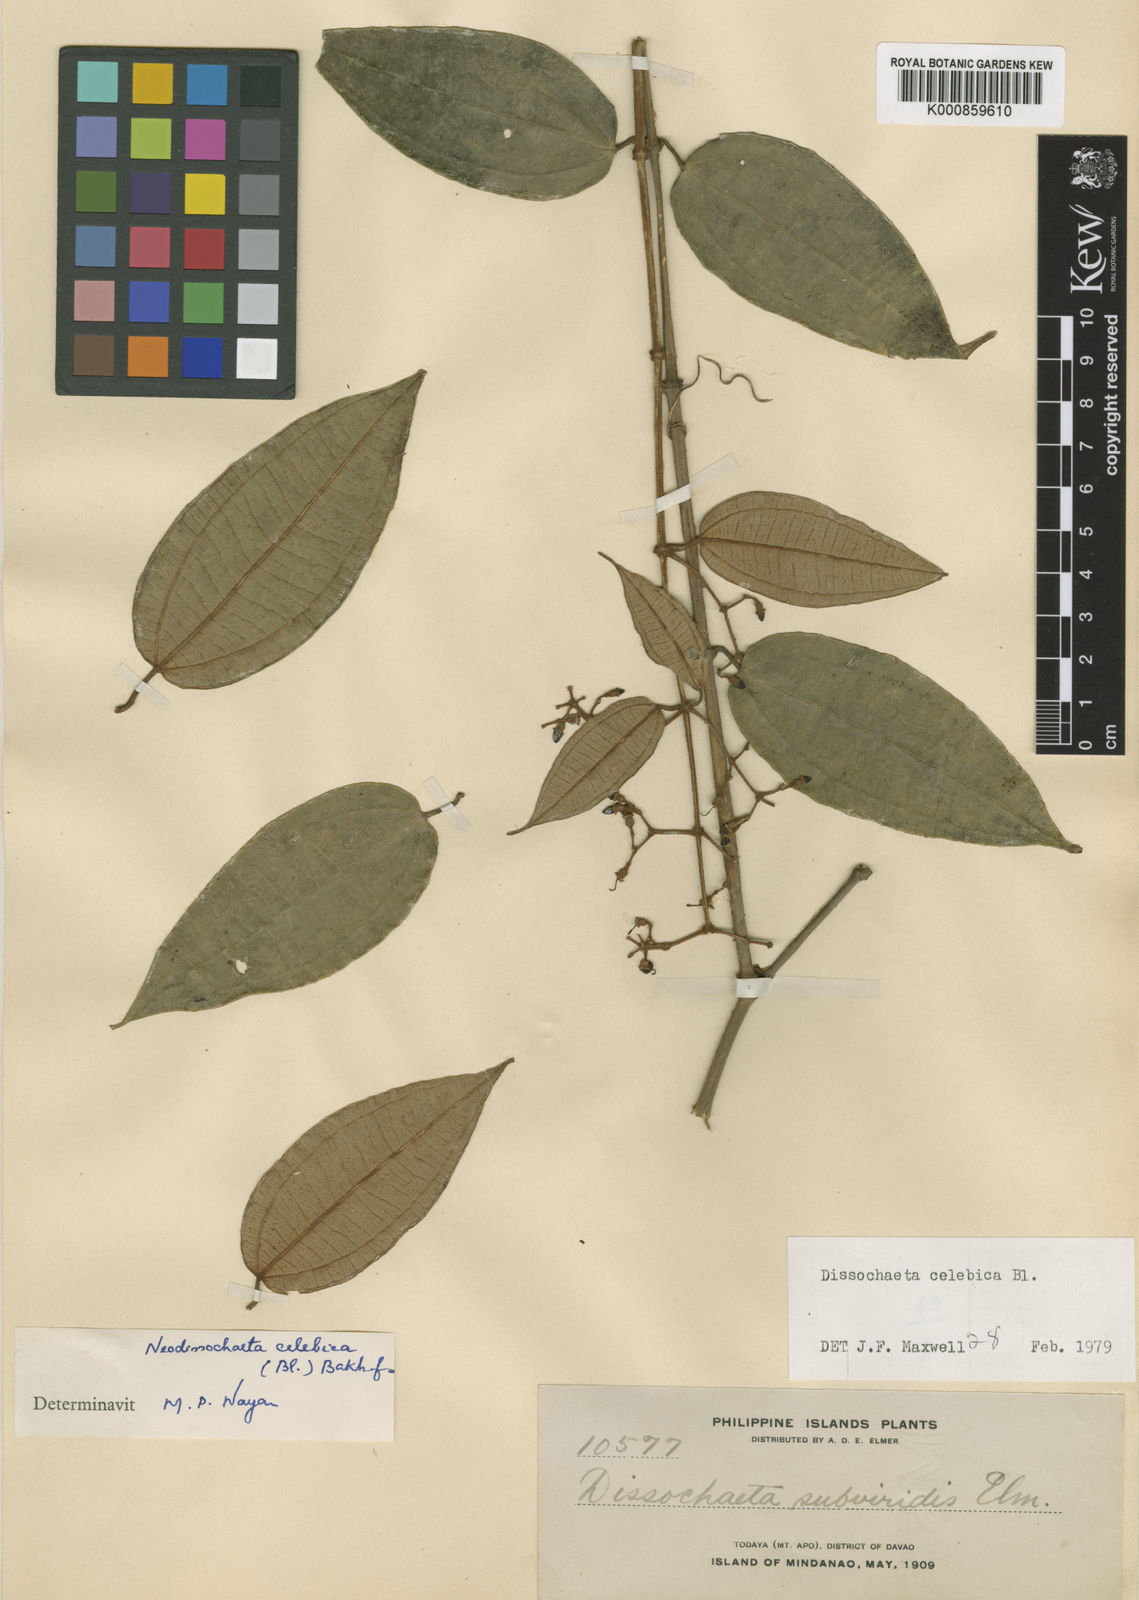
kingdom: Plantae
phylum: Tracheophyta
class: Magnoliopsida
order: Myrtales
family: Melastomataceae
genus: Dissochaeta
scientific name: Dissochaeta celebica
